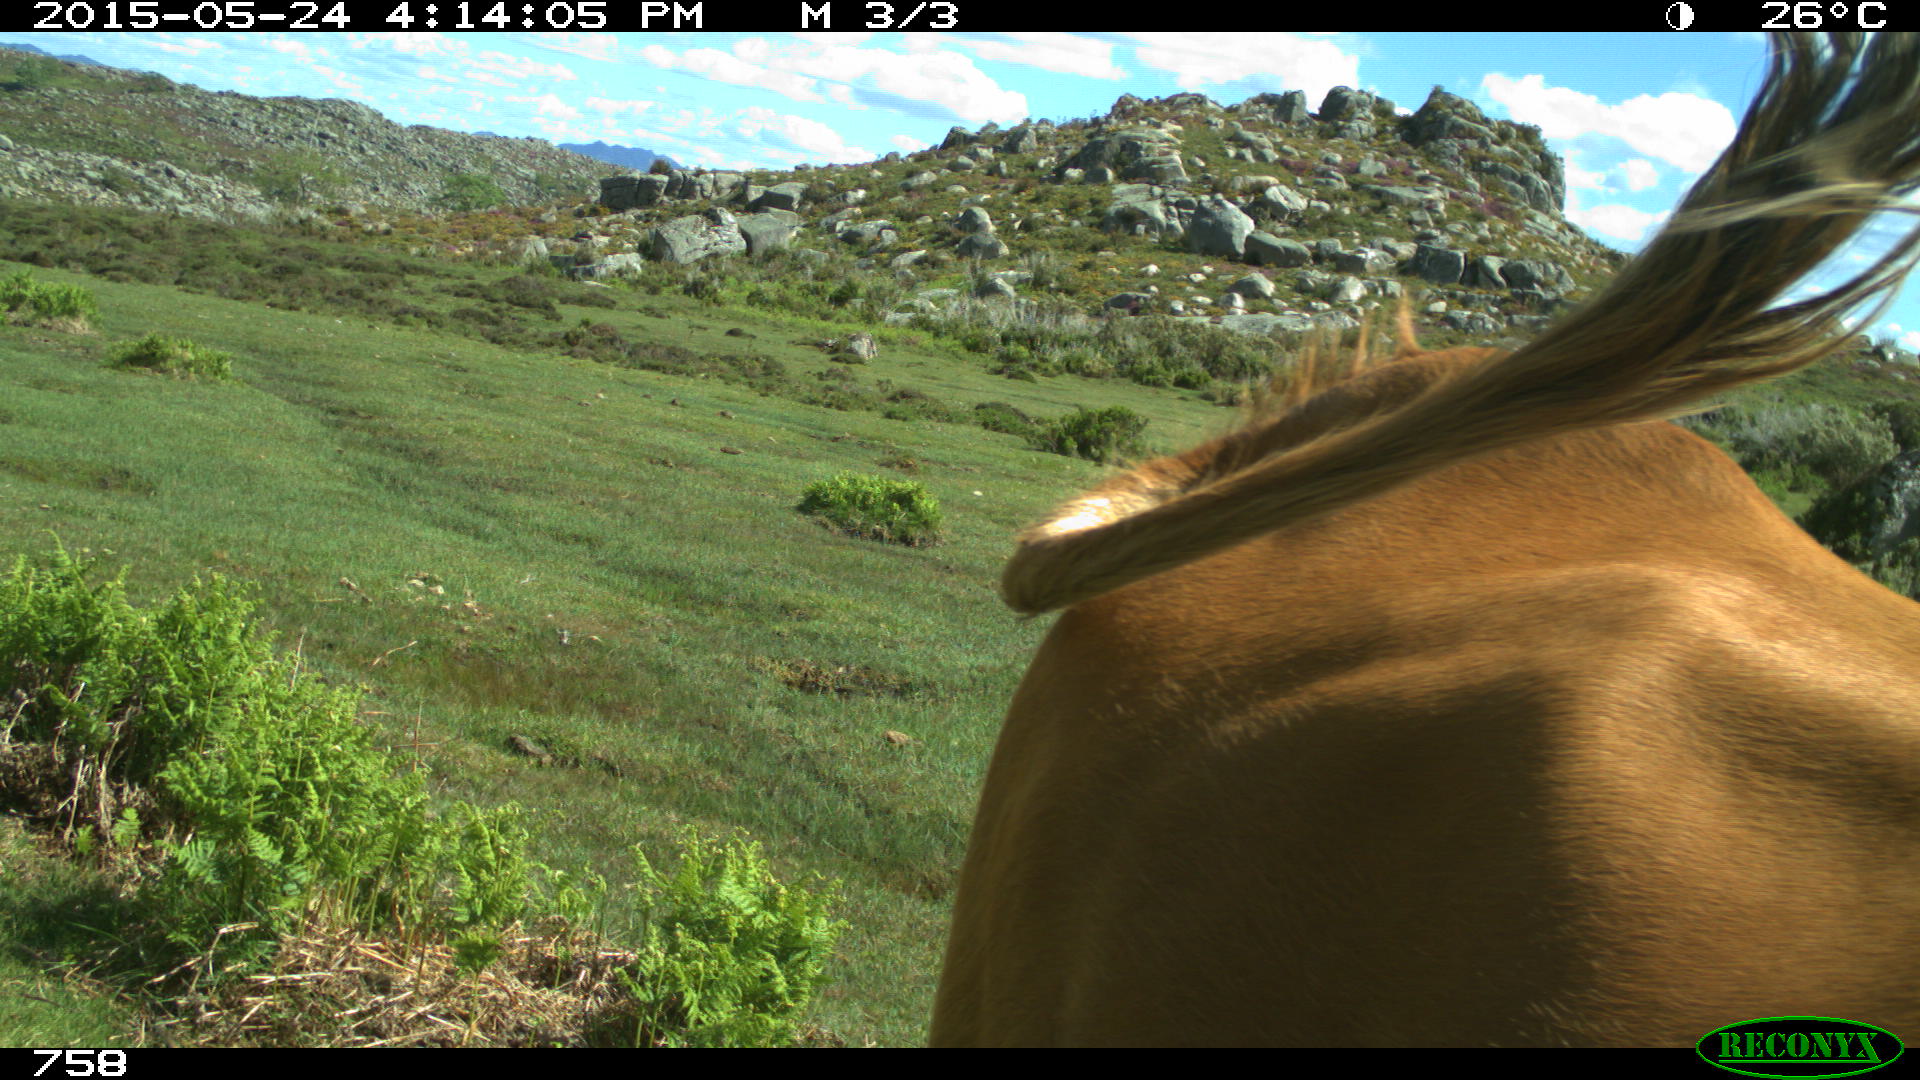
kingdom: Animalia
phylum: Chordata
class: Mammalia
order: Artiodactyla
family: Bovidae
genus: Bos
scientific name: Bos taurus
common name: Domesticated cattle
